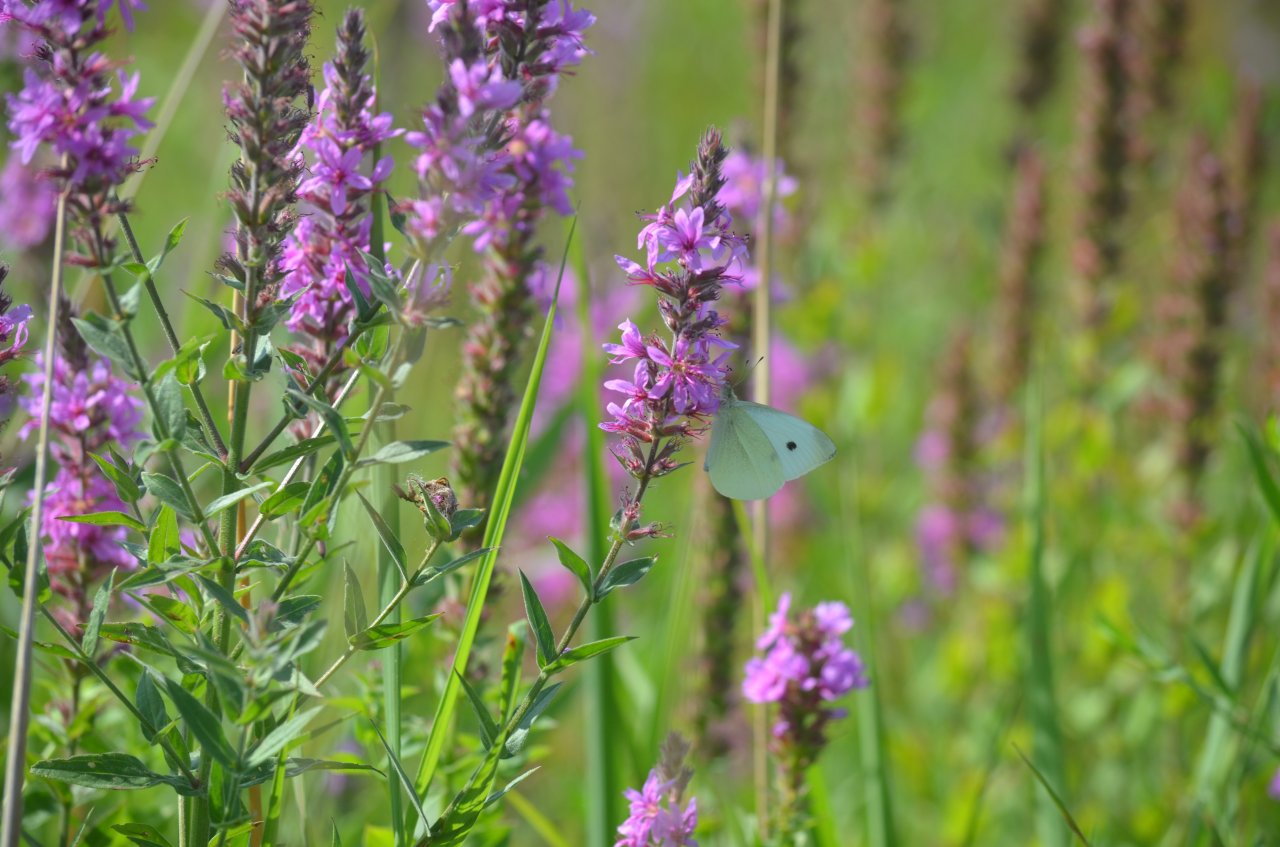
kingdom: Animalia
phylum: Arthropoda
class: Insecta
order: Lepidoptera
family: Pieridae
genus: Pieris
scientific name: Pieris rapae
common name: Cabbage White
